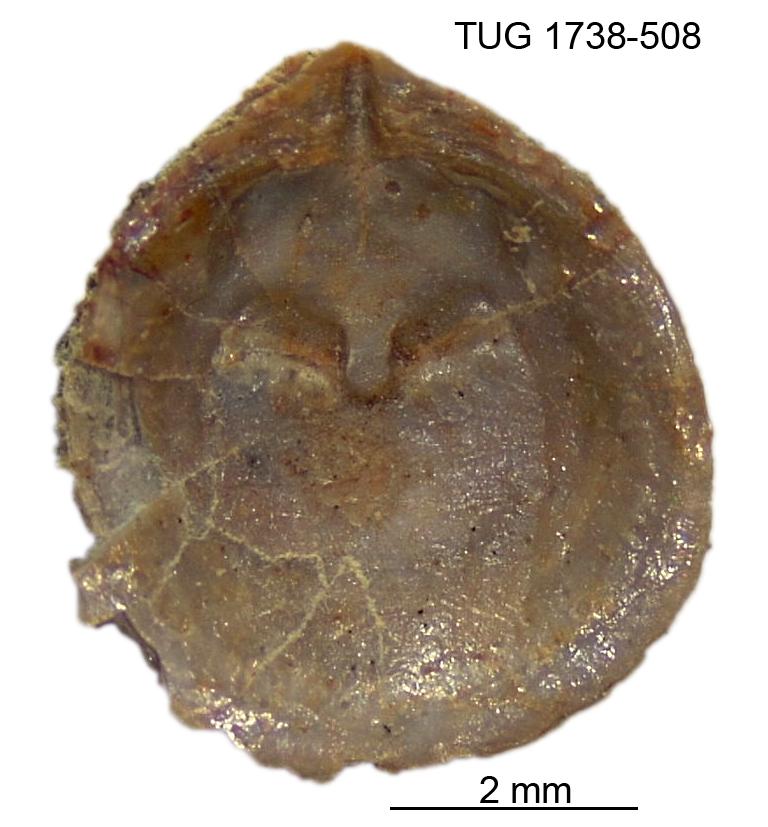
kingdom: Animalia
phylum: Brachiopoda
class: Lingulata
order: Lingulida
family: Obolidae
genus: Schmidtites
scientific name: Schmidtites Schmidtia celata
